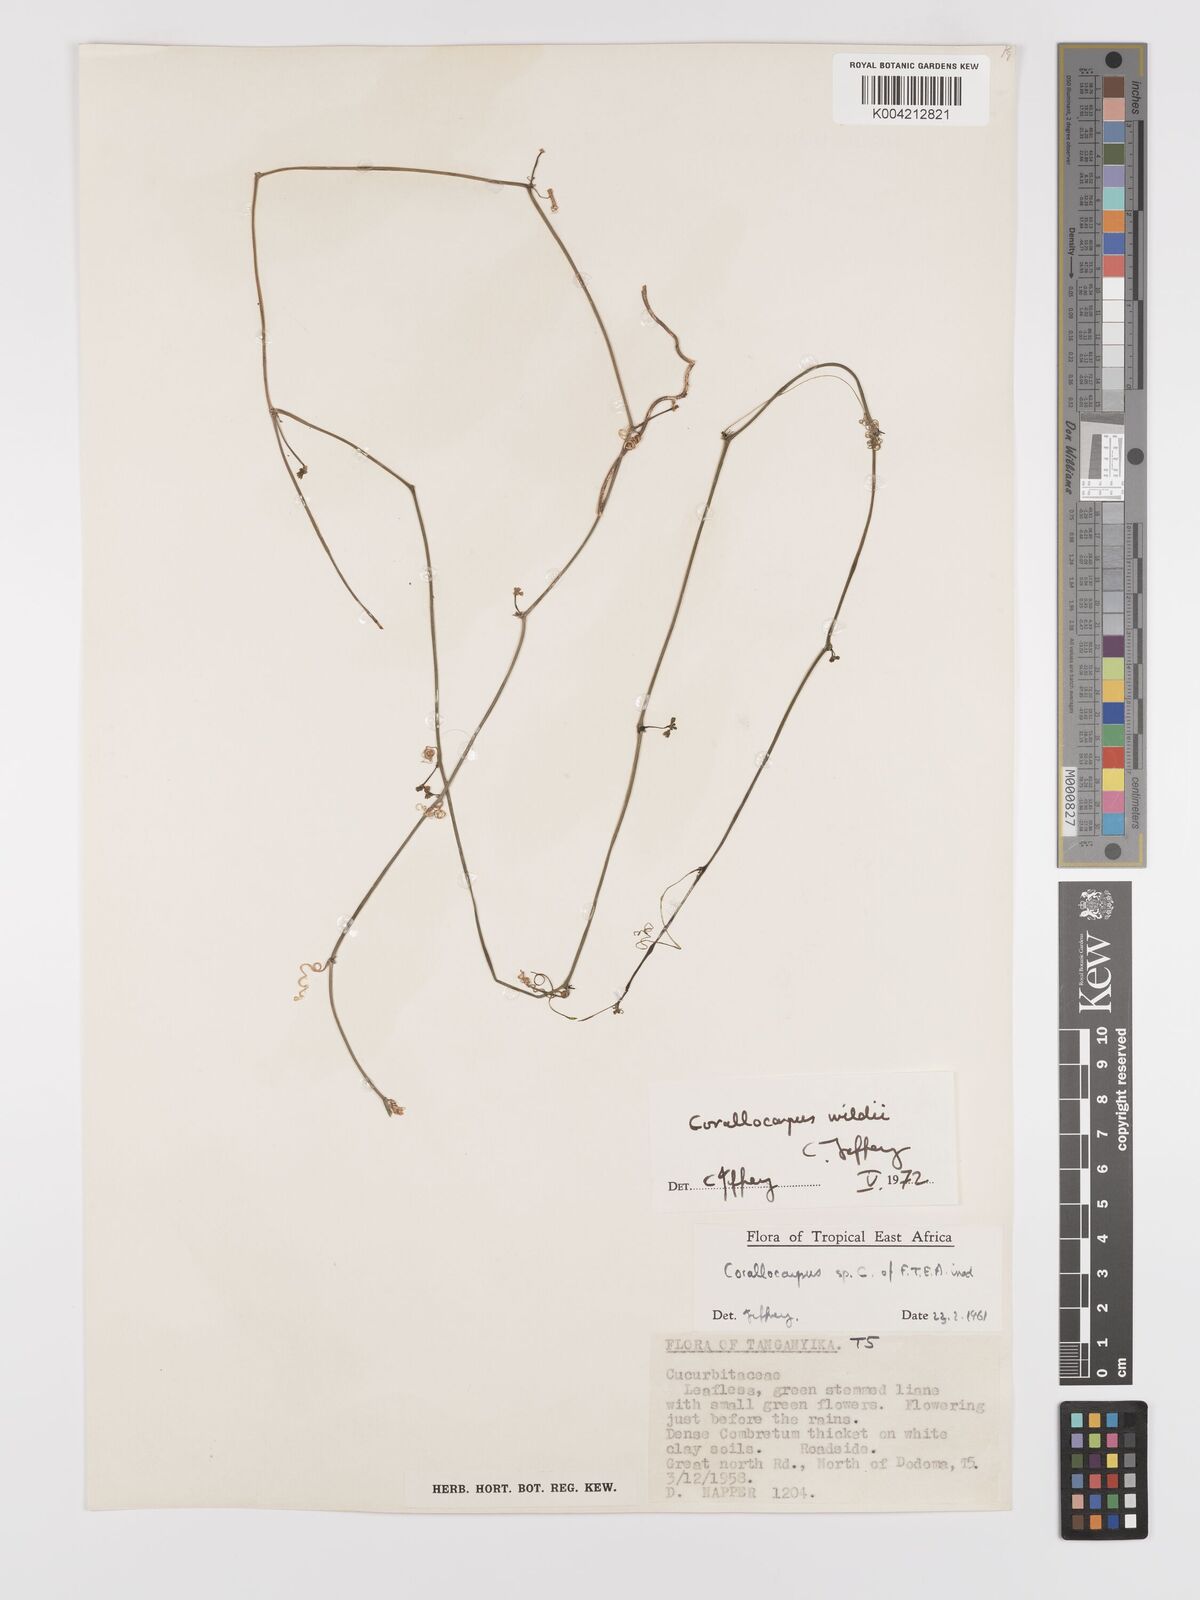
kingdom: Plantae
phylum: Tracheophyta
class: Magnoliopsida
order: Cucurbitales
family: Cucurbitaceae
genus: Corallocarpus
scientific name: Corallocarpus tenuissimus
